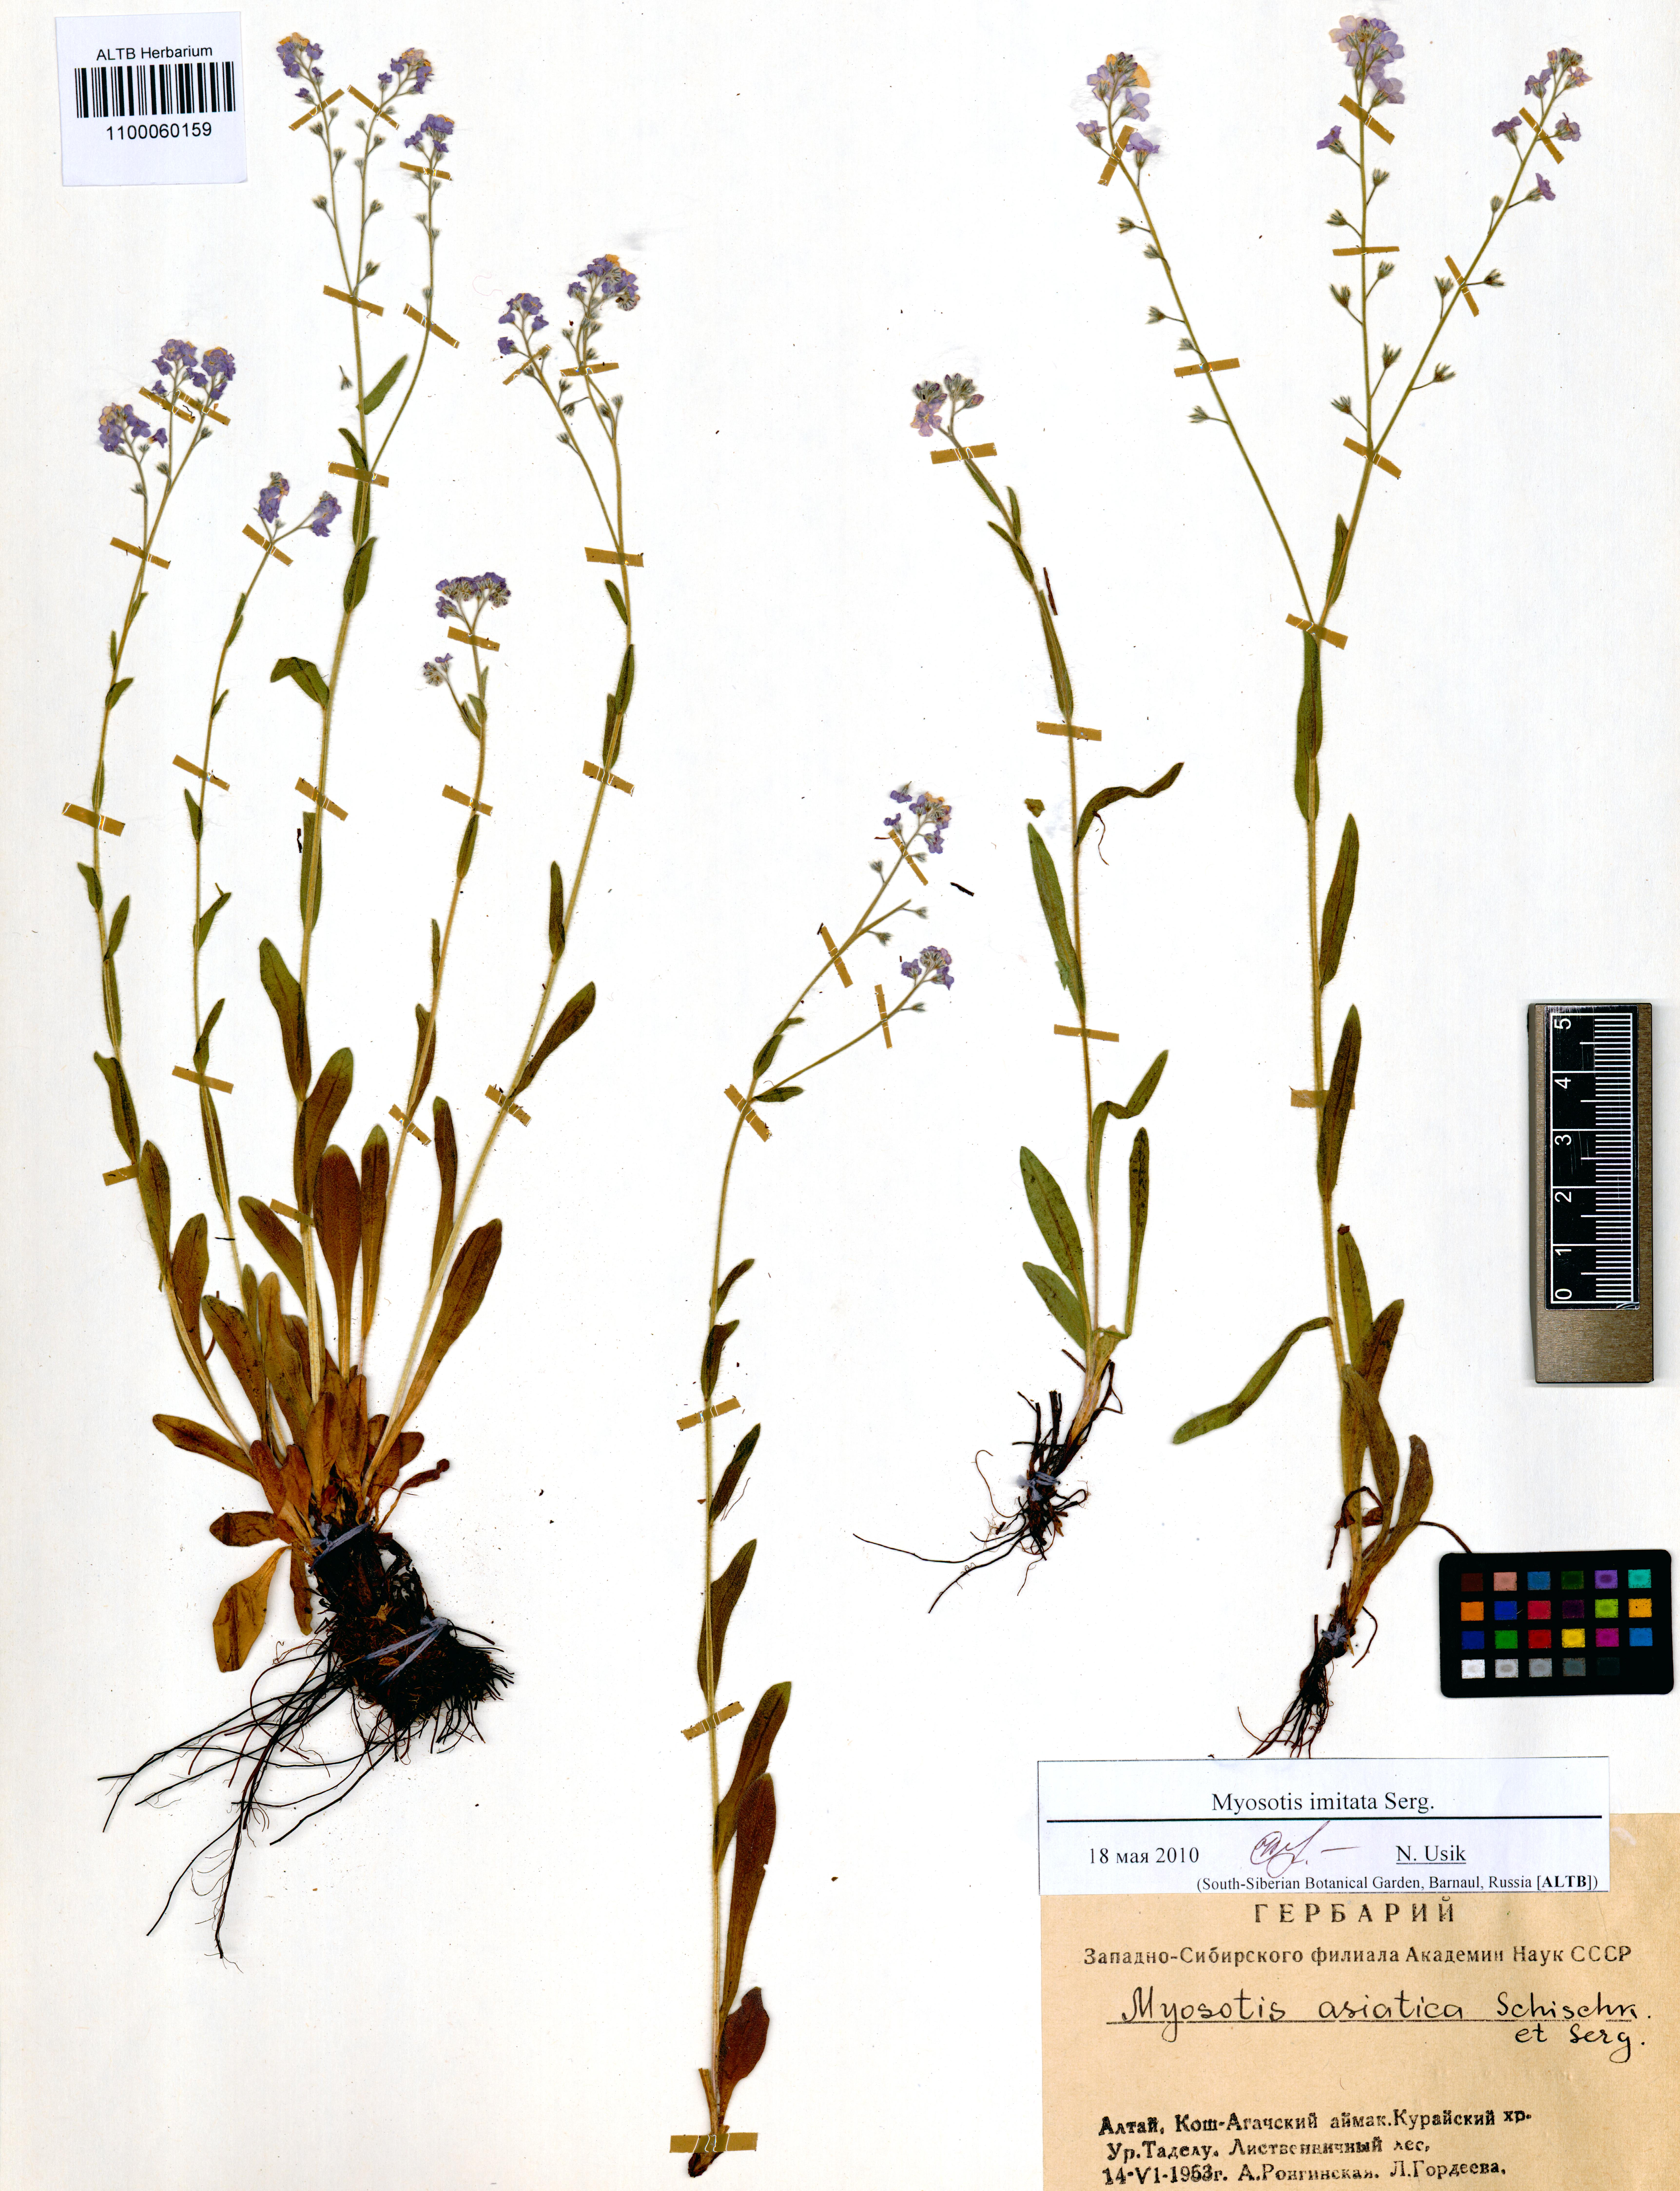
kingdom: Plantae
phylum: Tracheophyta
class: Magnoliopsida
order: Boraginales
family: Boraginaceae
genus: Myosotis
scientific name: Myosotis imitata
